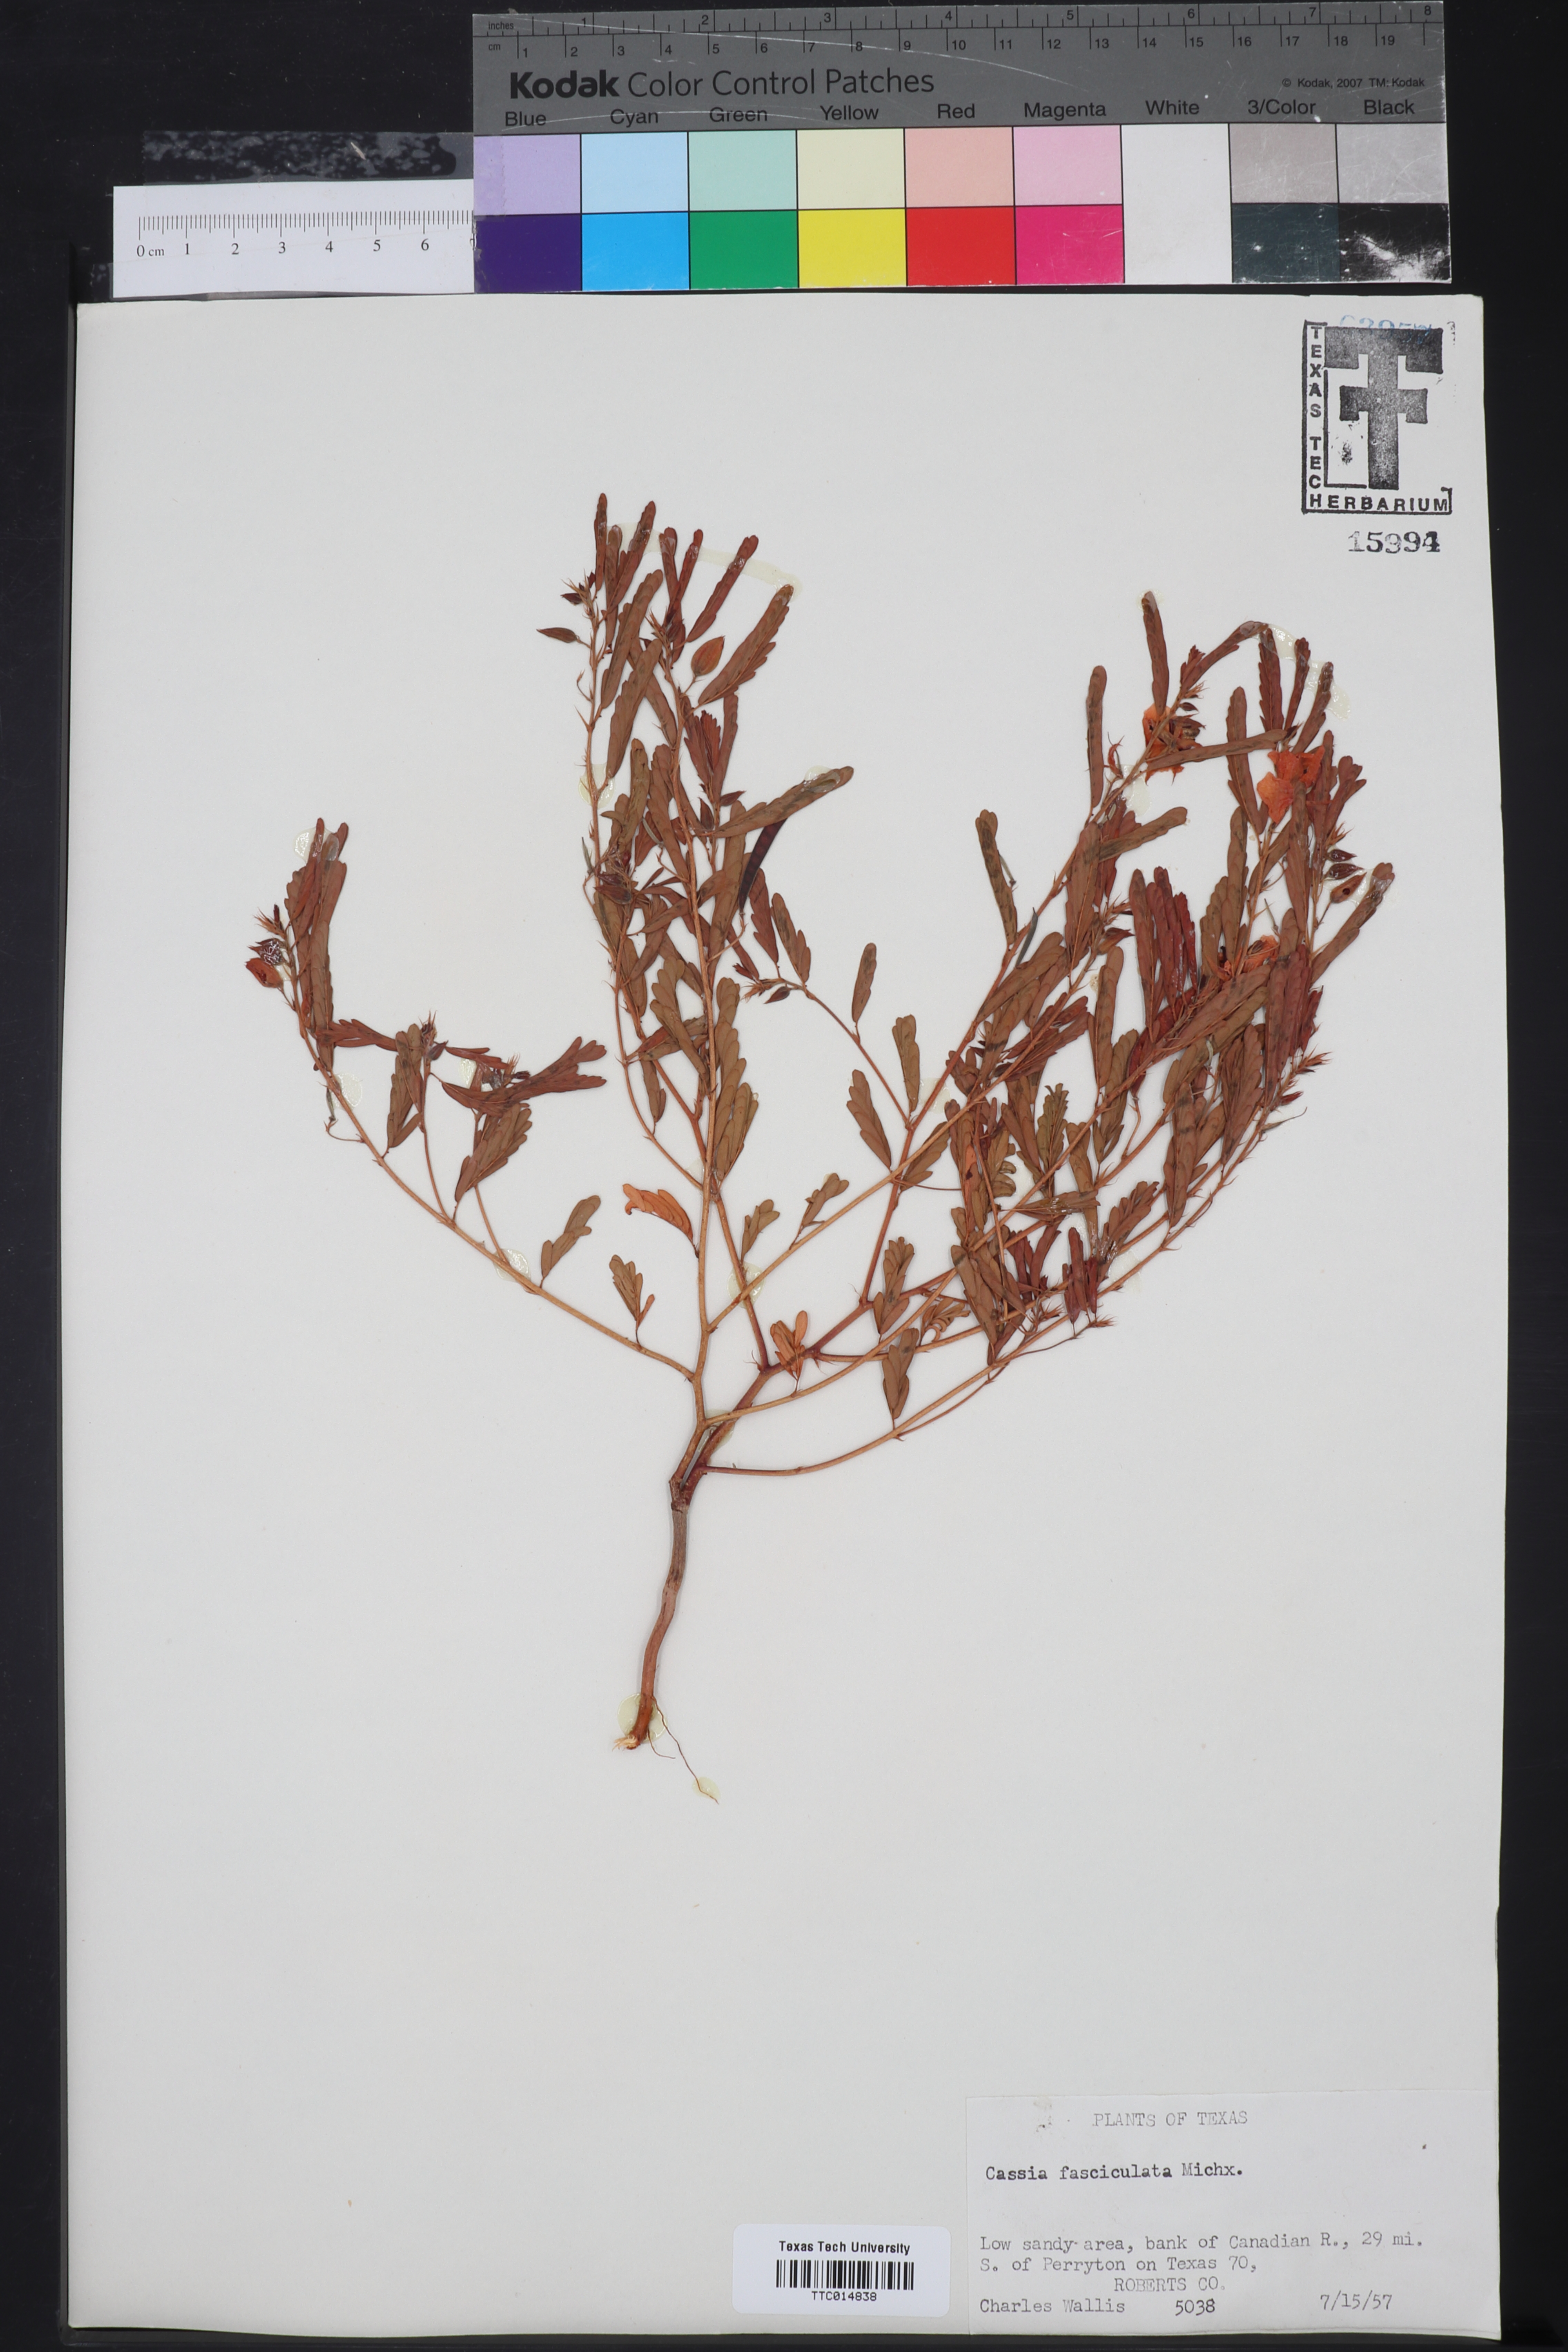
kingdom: Plantae
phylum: Tracheophyta
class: Magnoliopsida
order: Fabales
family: Fabaceae
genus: Chamaecrista
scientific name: Chamaecrista fasciculata
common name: Golden cassia
